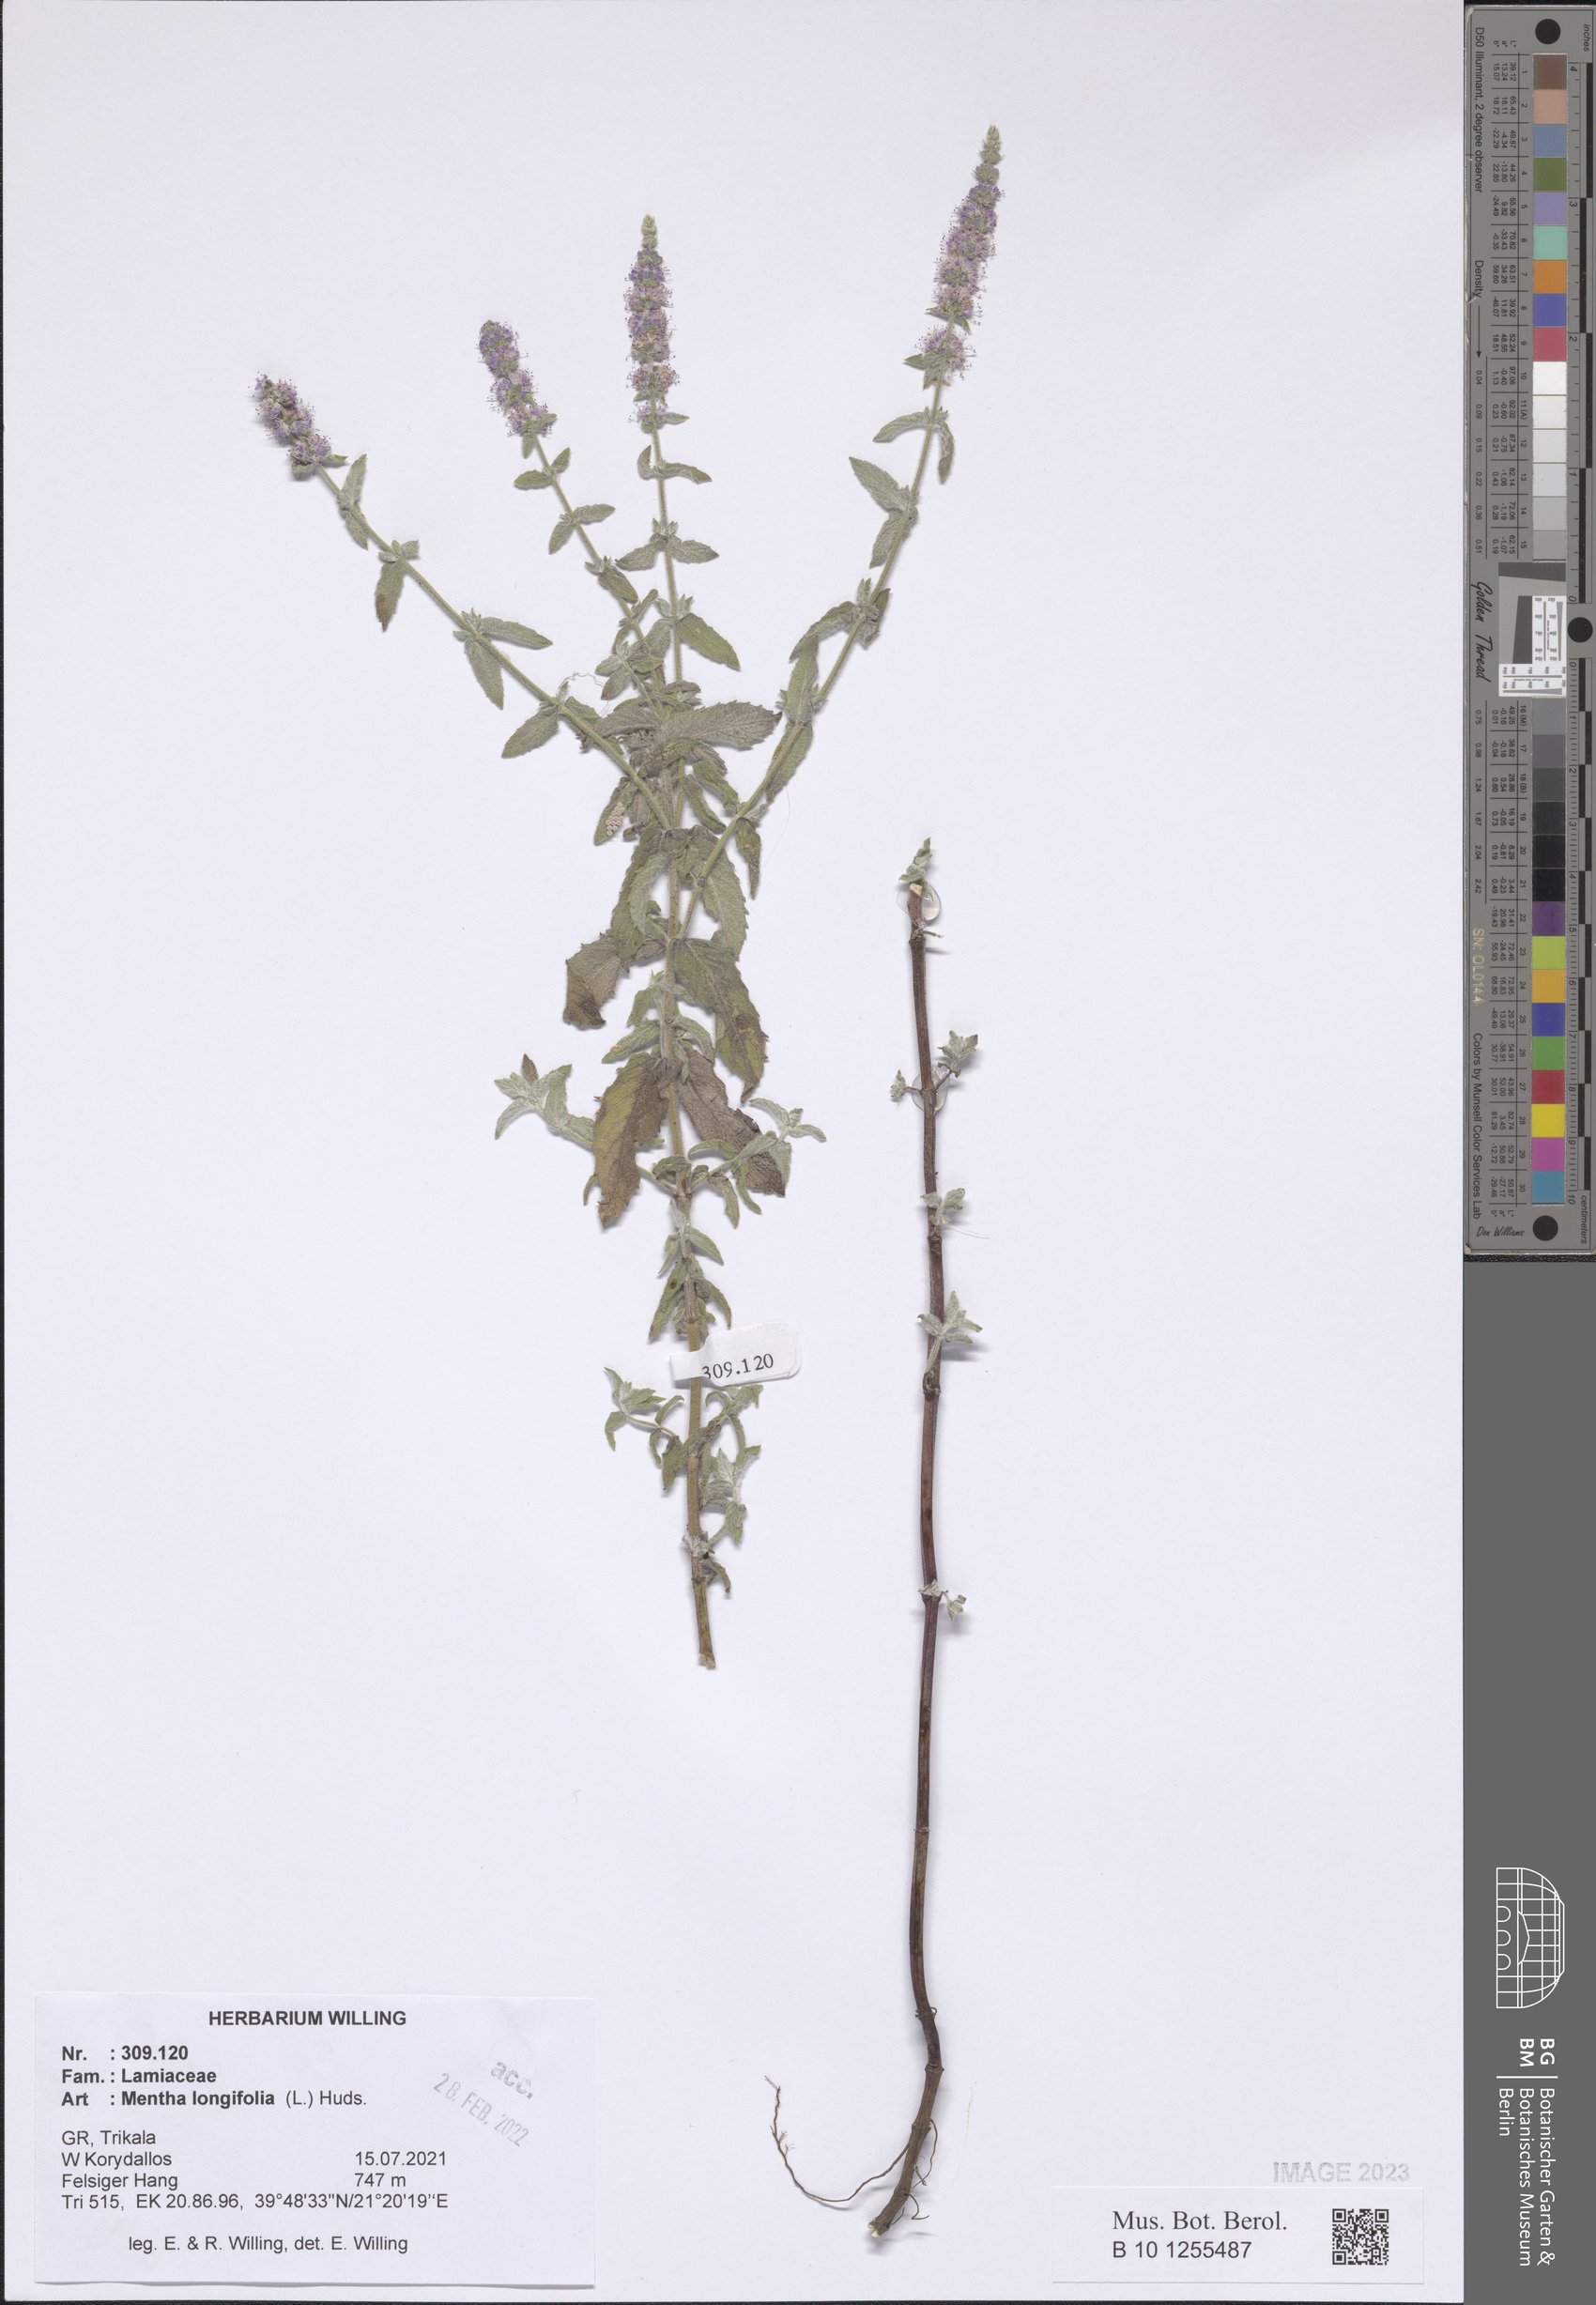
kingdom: Plantae
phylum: Tracheophyta
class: Magnoliopsida
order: Lamiales
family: Lamiaceae
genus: Mentha
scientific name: Mentha longifolia
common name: Horse mint
